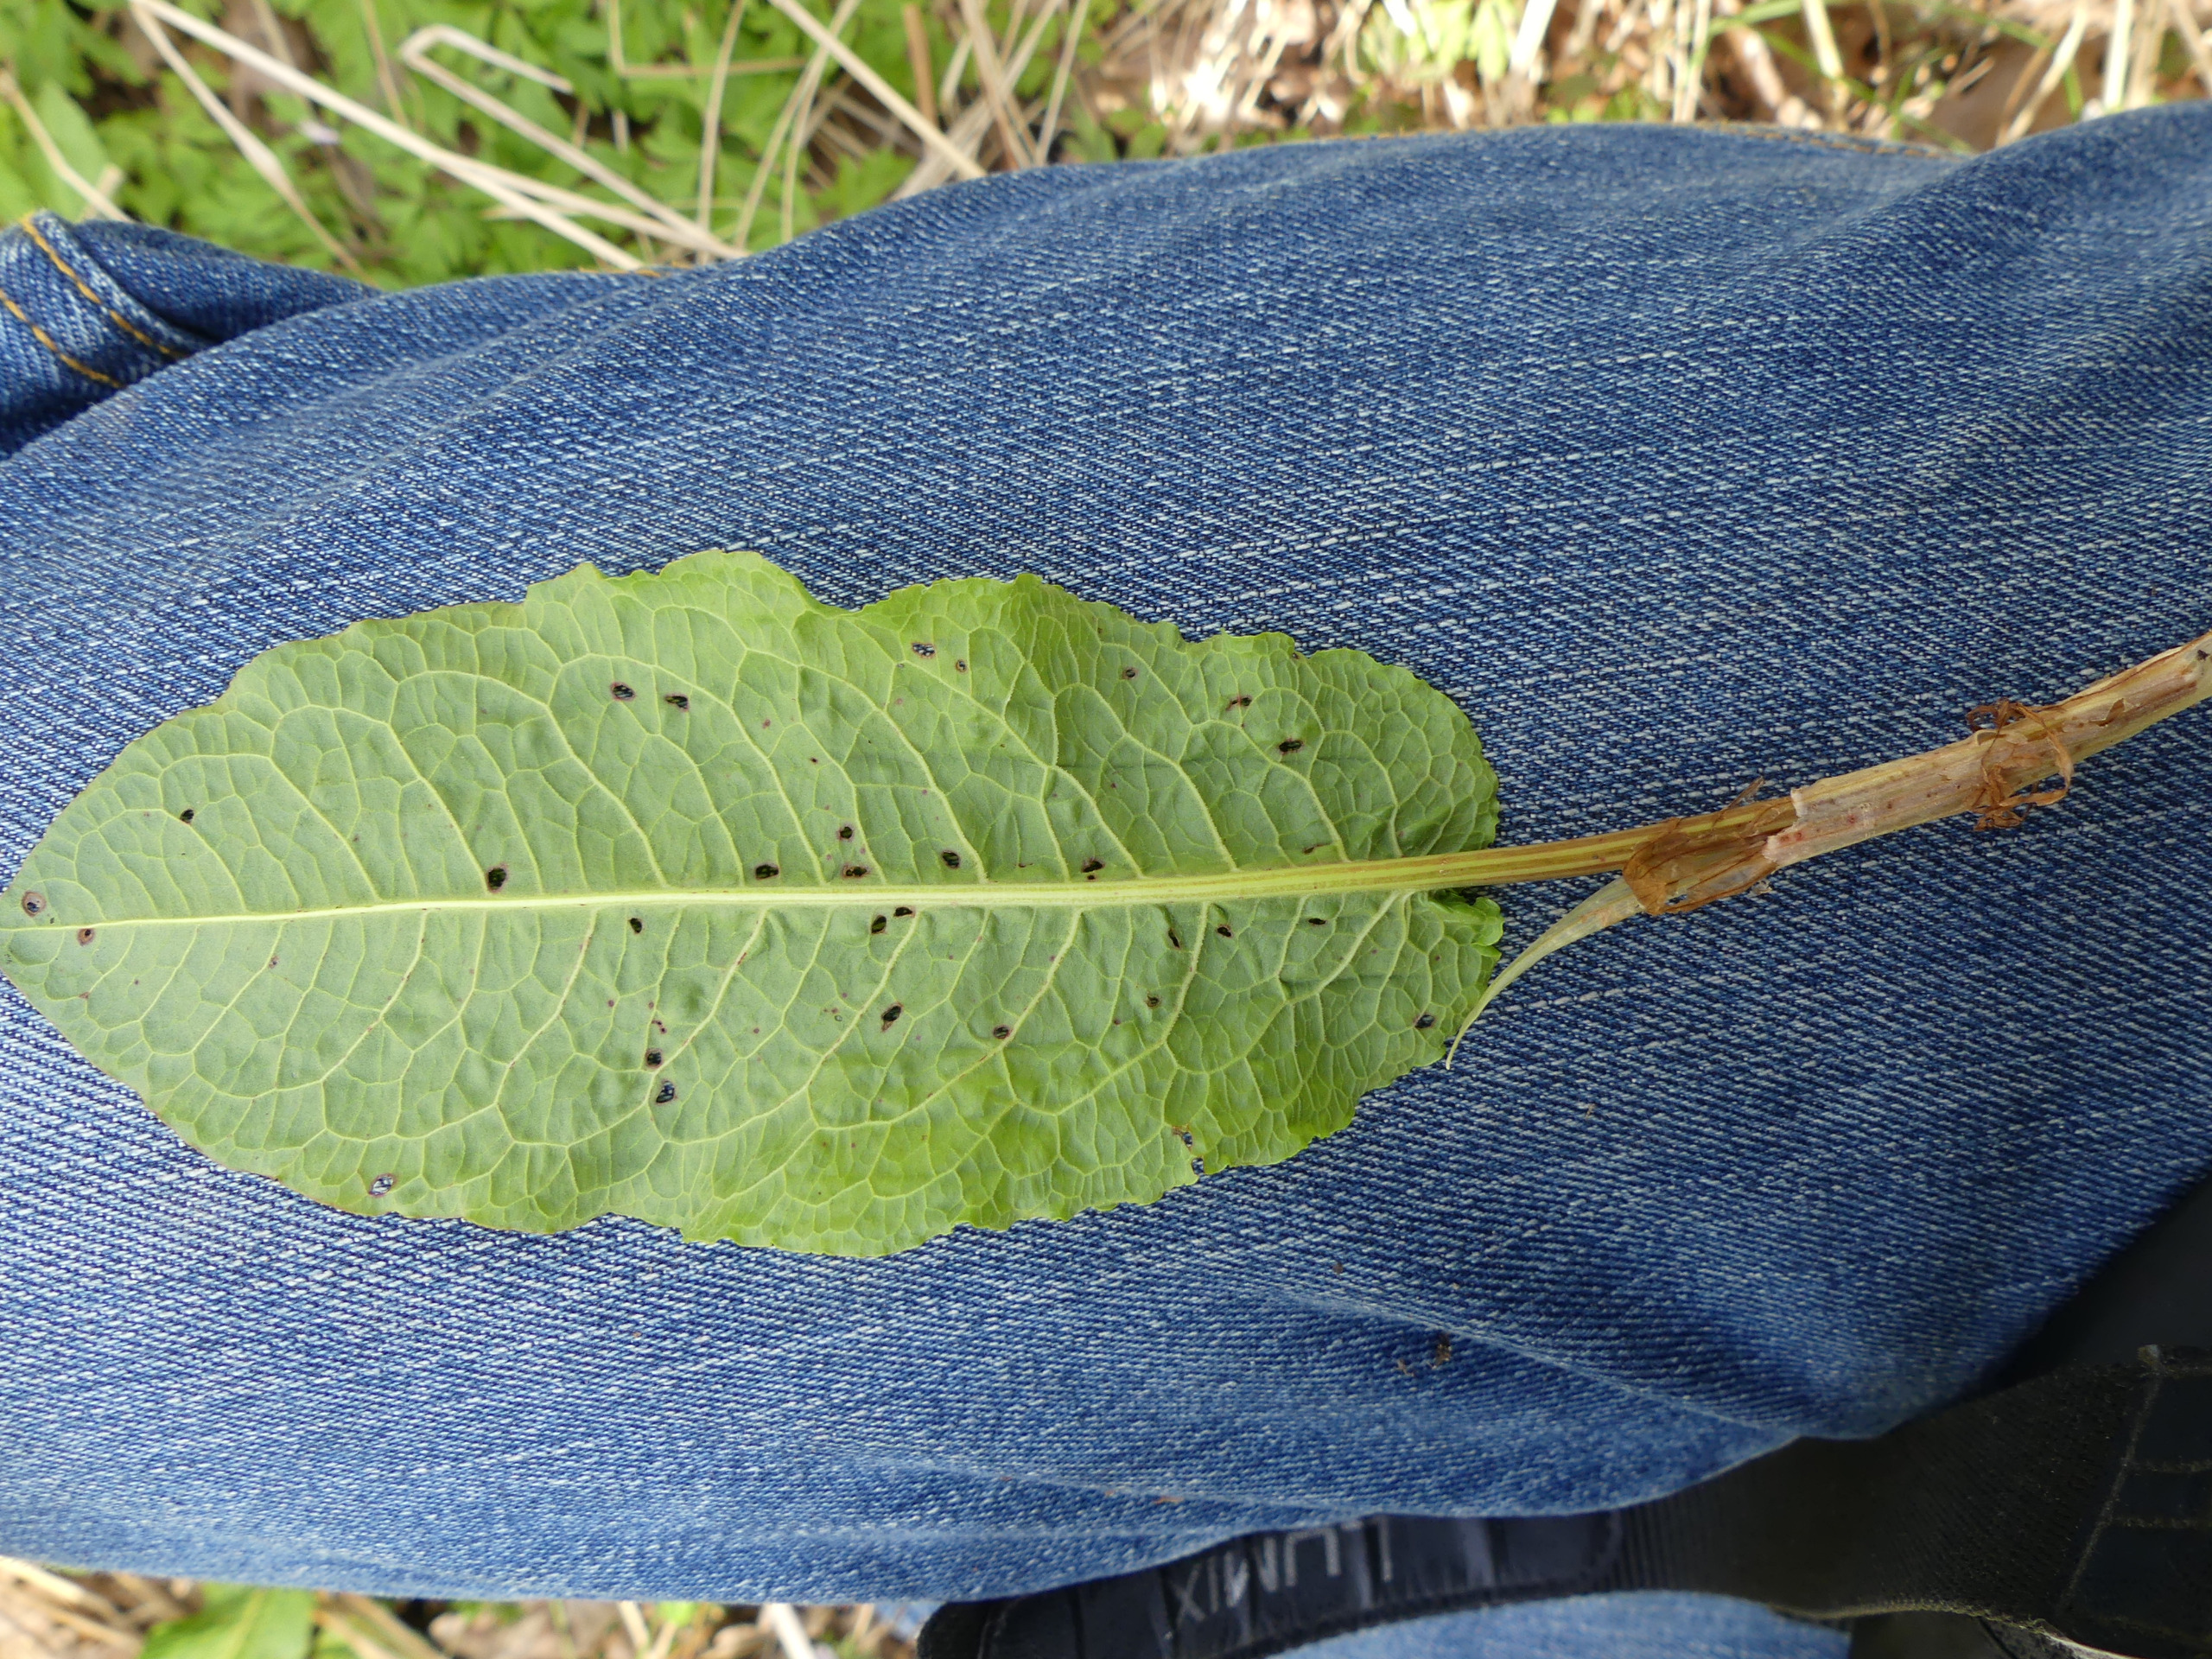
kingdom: Plantae
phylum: Tracheophyta
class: Magnoliopsida
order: Caryophyllales
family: Polygonaceae
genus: Rumex
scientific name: Rumex obtusifolius
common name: Butbladet skræppe
